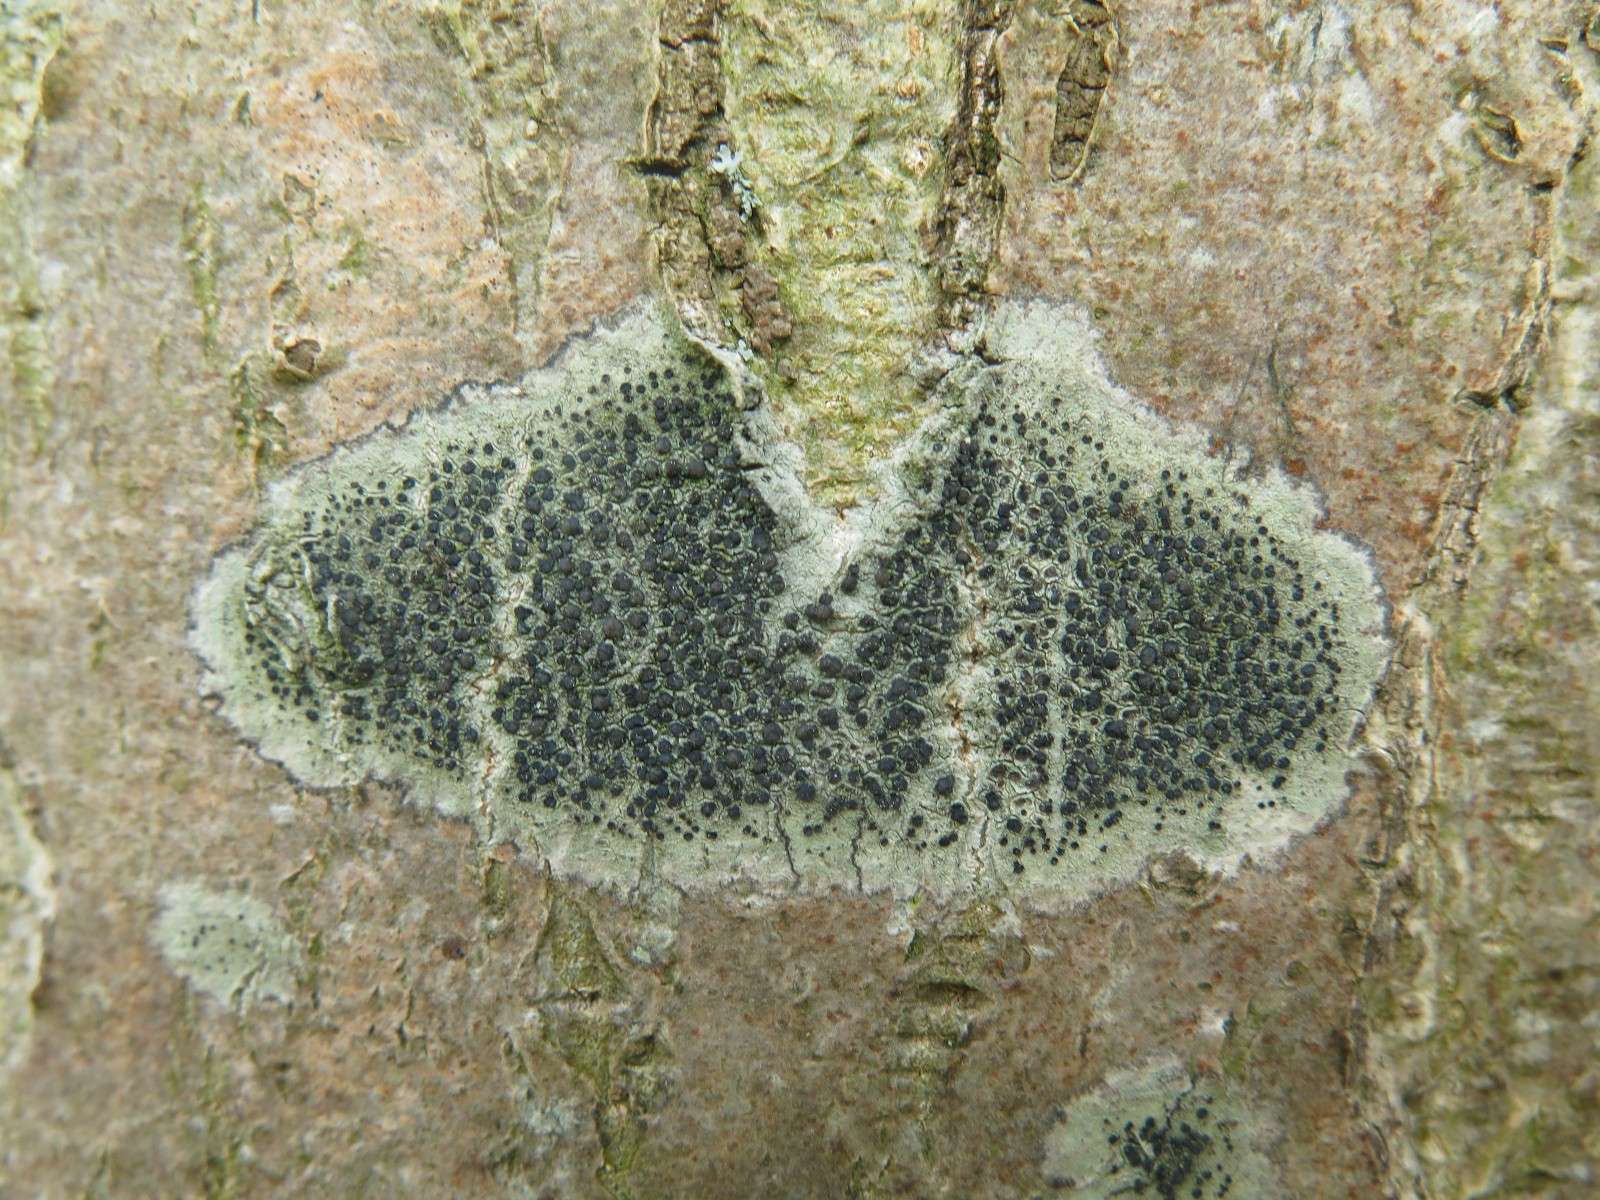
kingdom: Fungi
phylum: Ascomycota
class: Lecanoromycetes
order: Lecanorales
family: Lecanoraceae
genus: Lecidella
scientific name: Lecidella elaeochroma
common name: grågrøn skivelav
